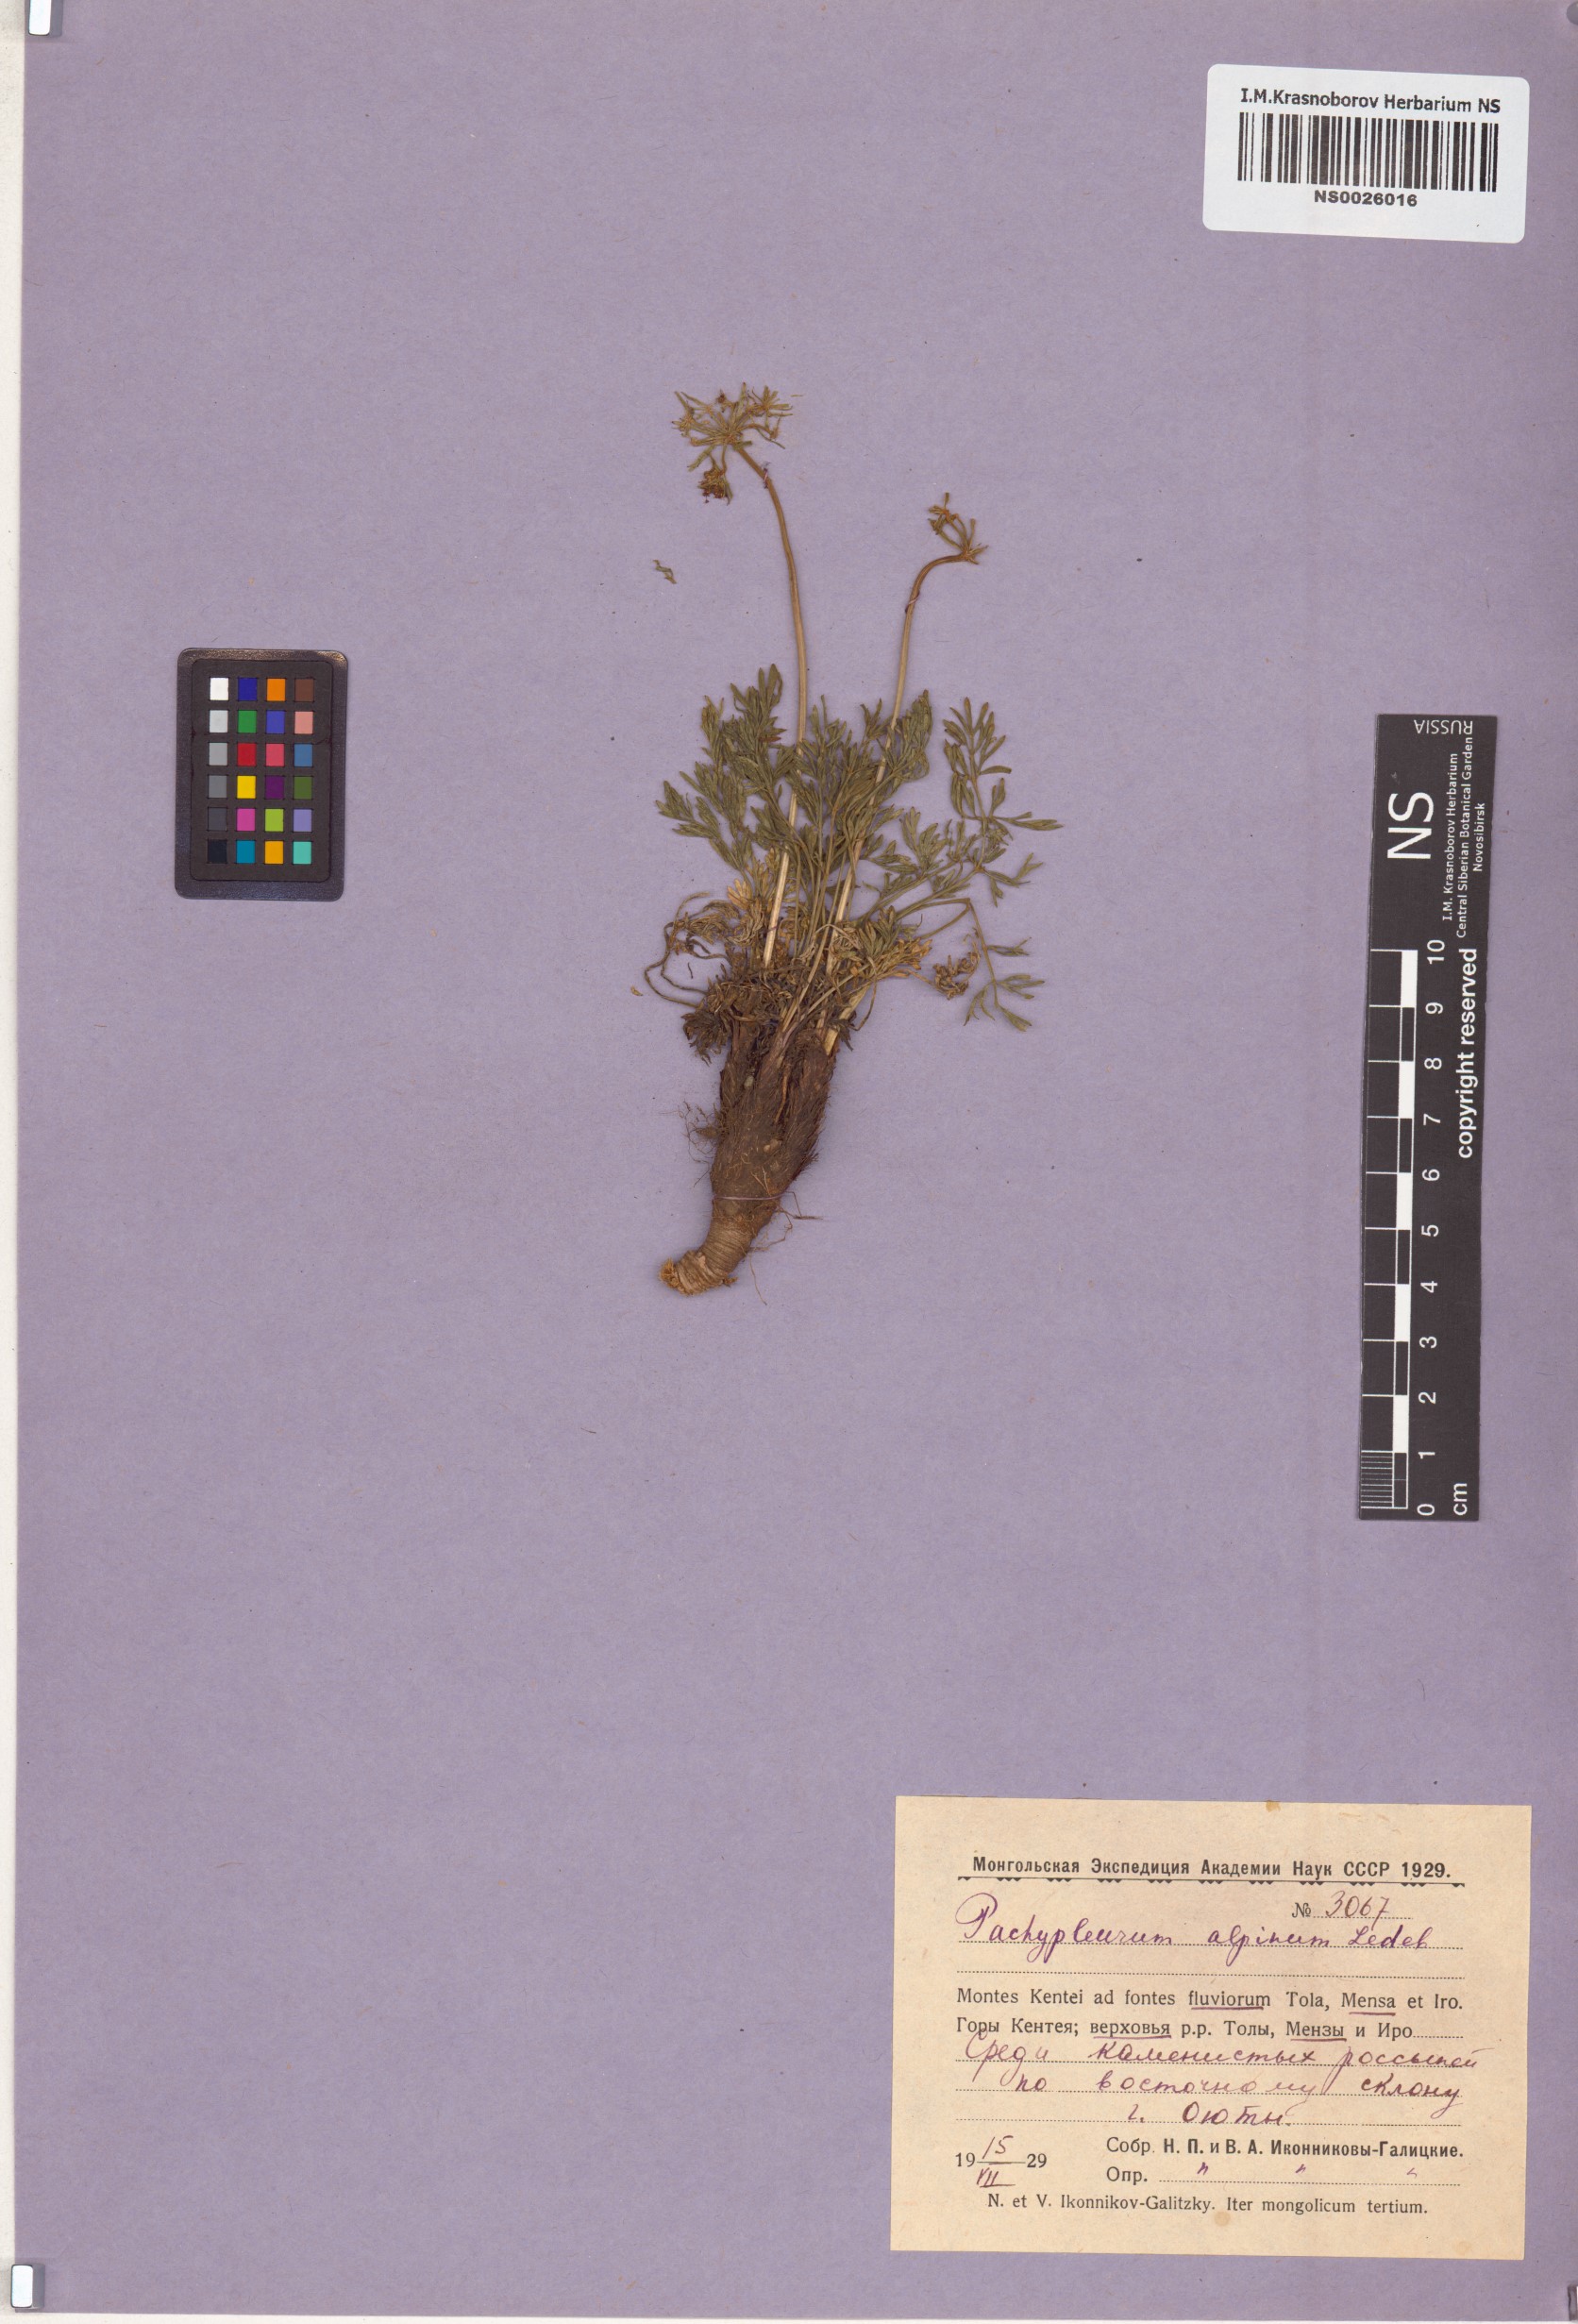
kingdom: Plantae
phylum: Tracheophyta
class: Magnoliopsida
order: Apiales
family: Apiaceae
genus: Pachypleurum
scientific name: Pachypleurum mutellinoides
